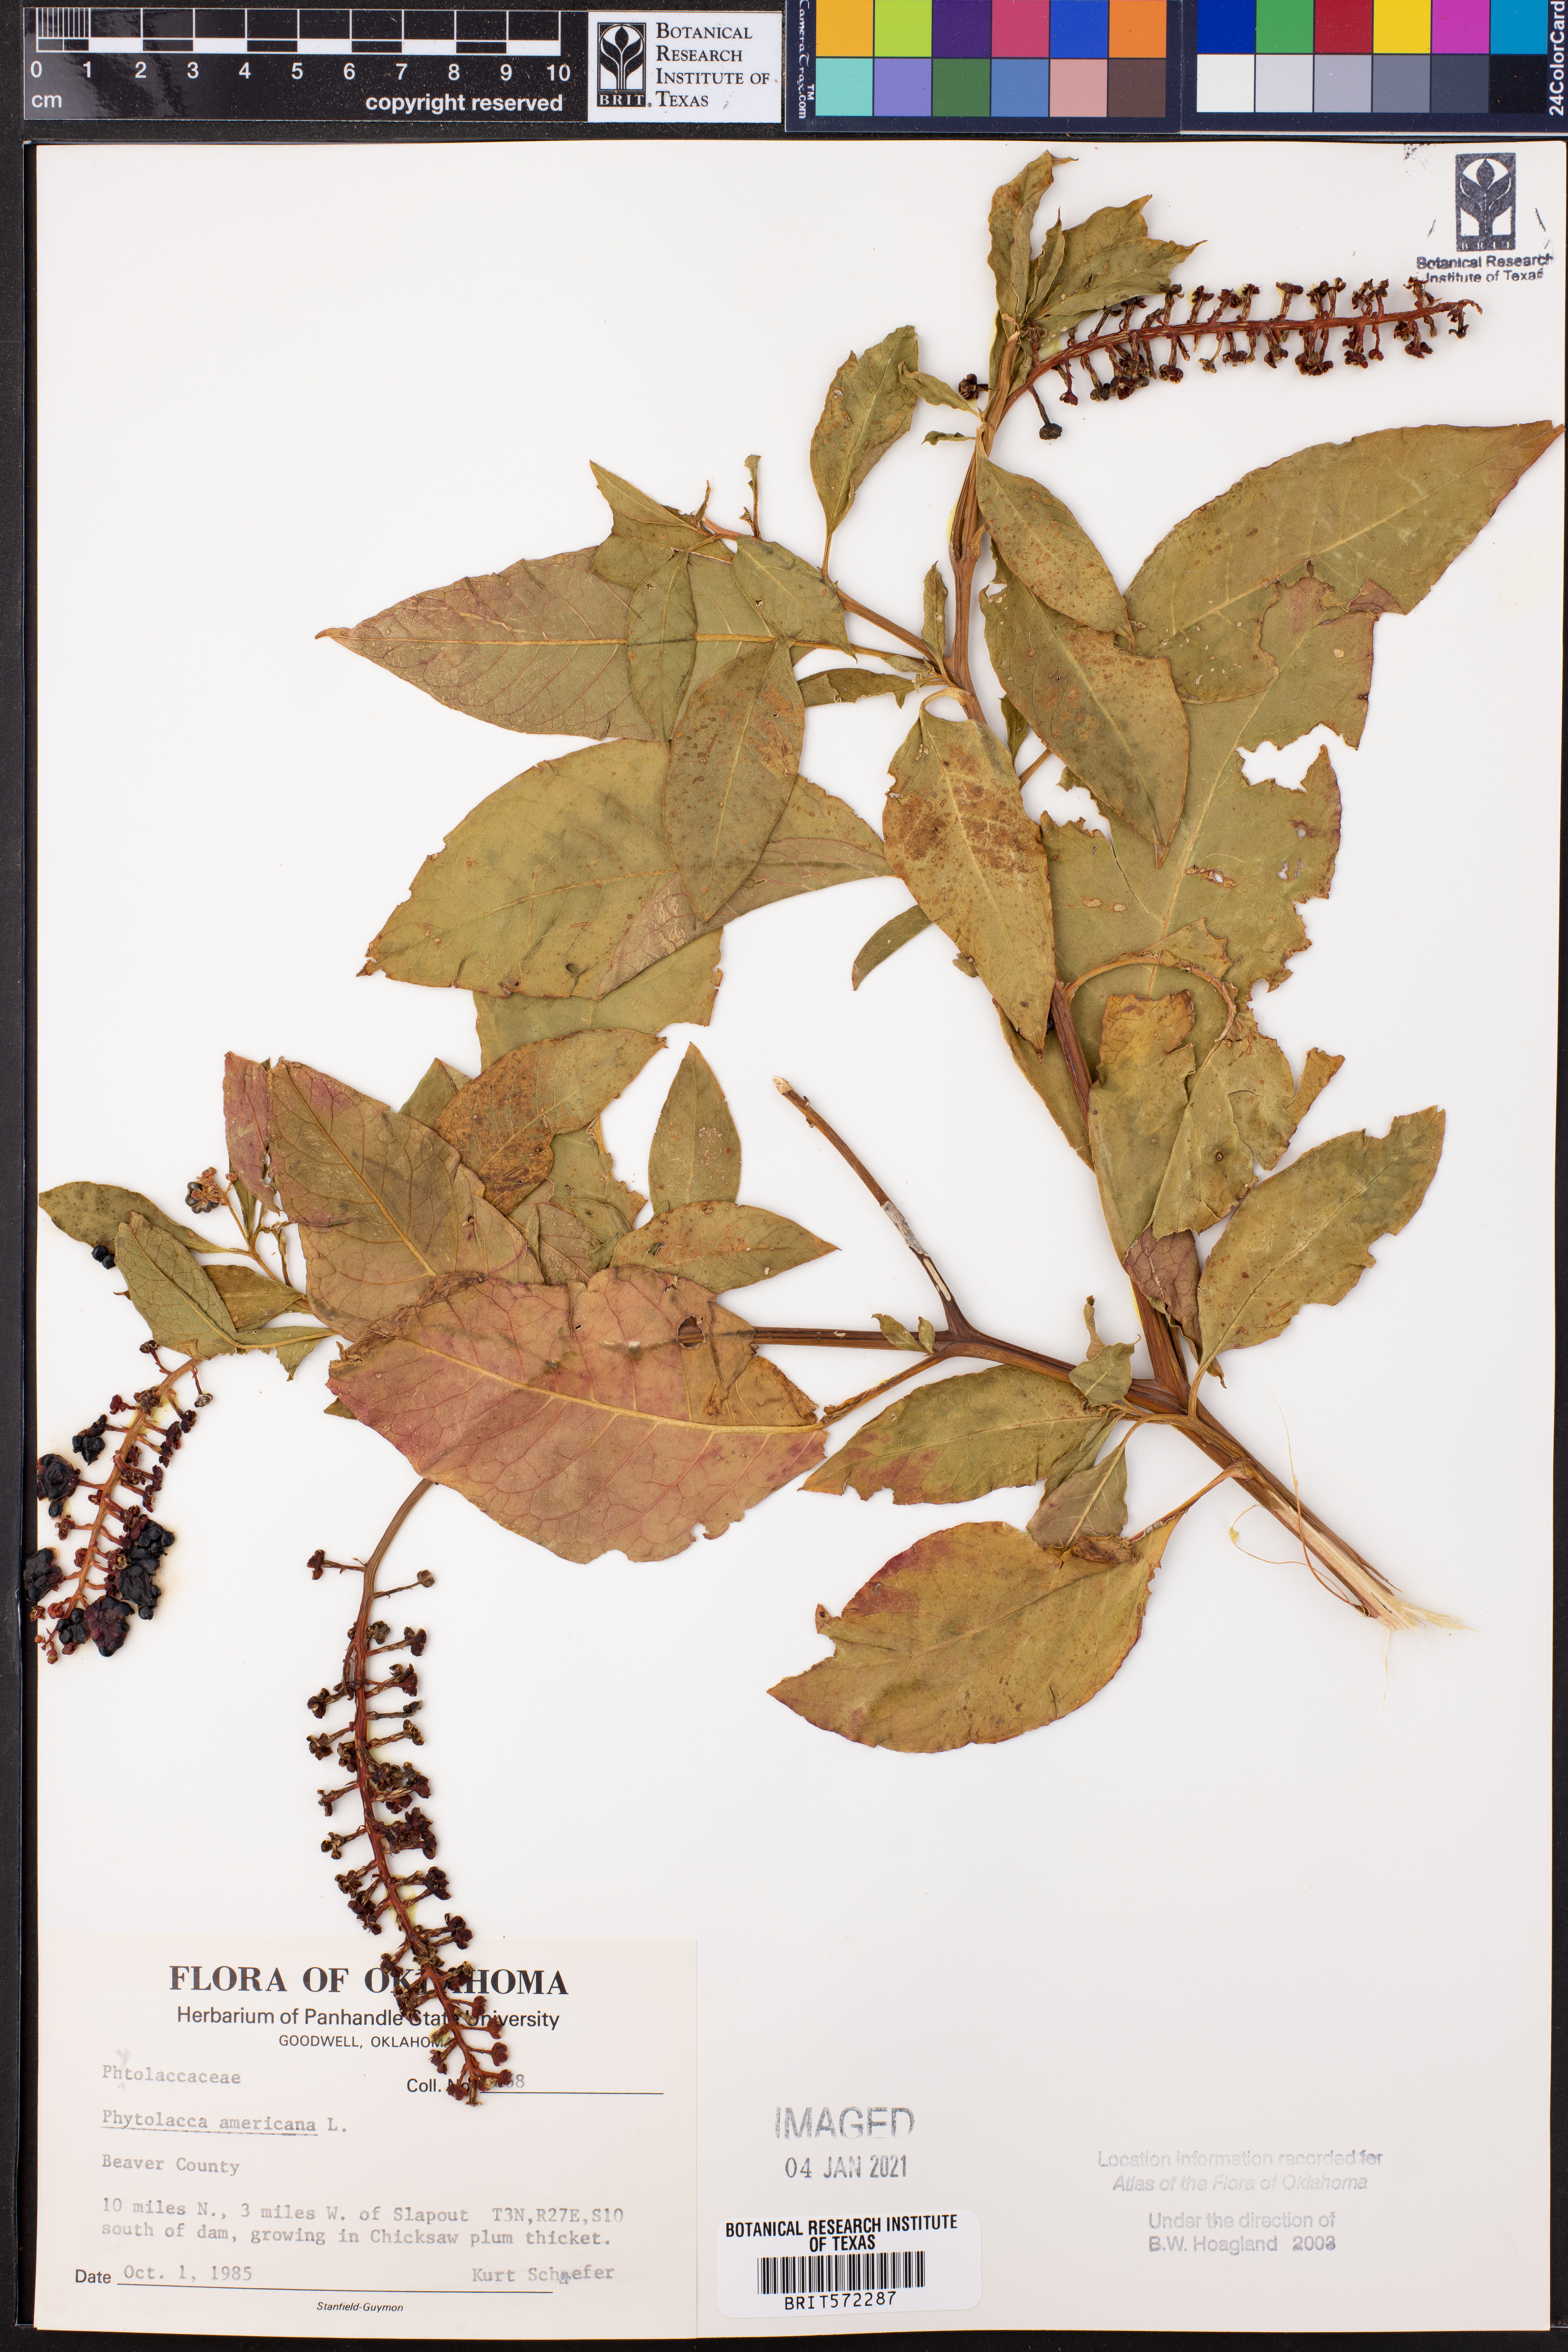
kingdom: Plantae
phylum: Tracheophyta
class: Magnoliopsida
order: Caryophyllales
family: Phytolaccaceae
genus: Phytolacca
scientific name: Phytolacca americana
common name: American pokeweed
